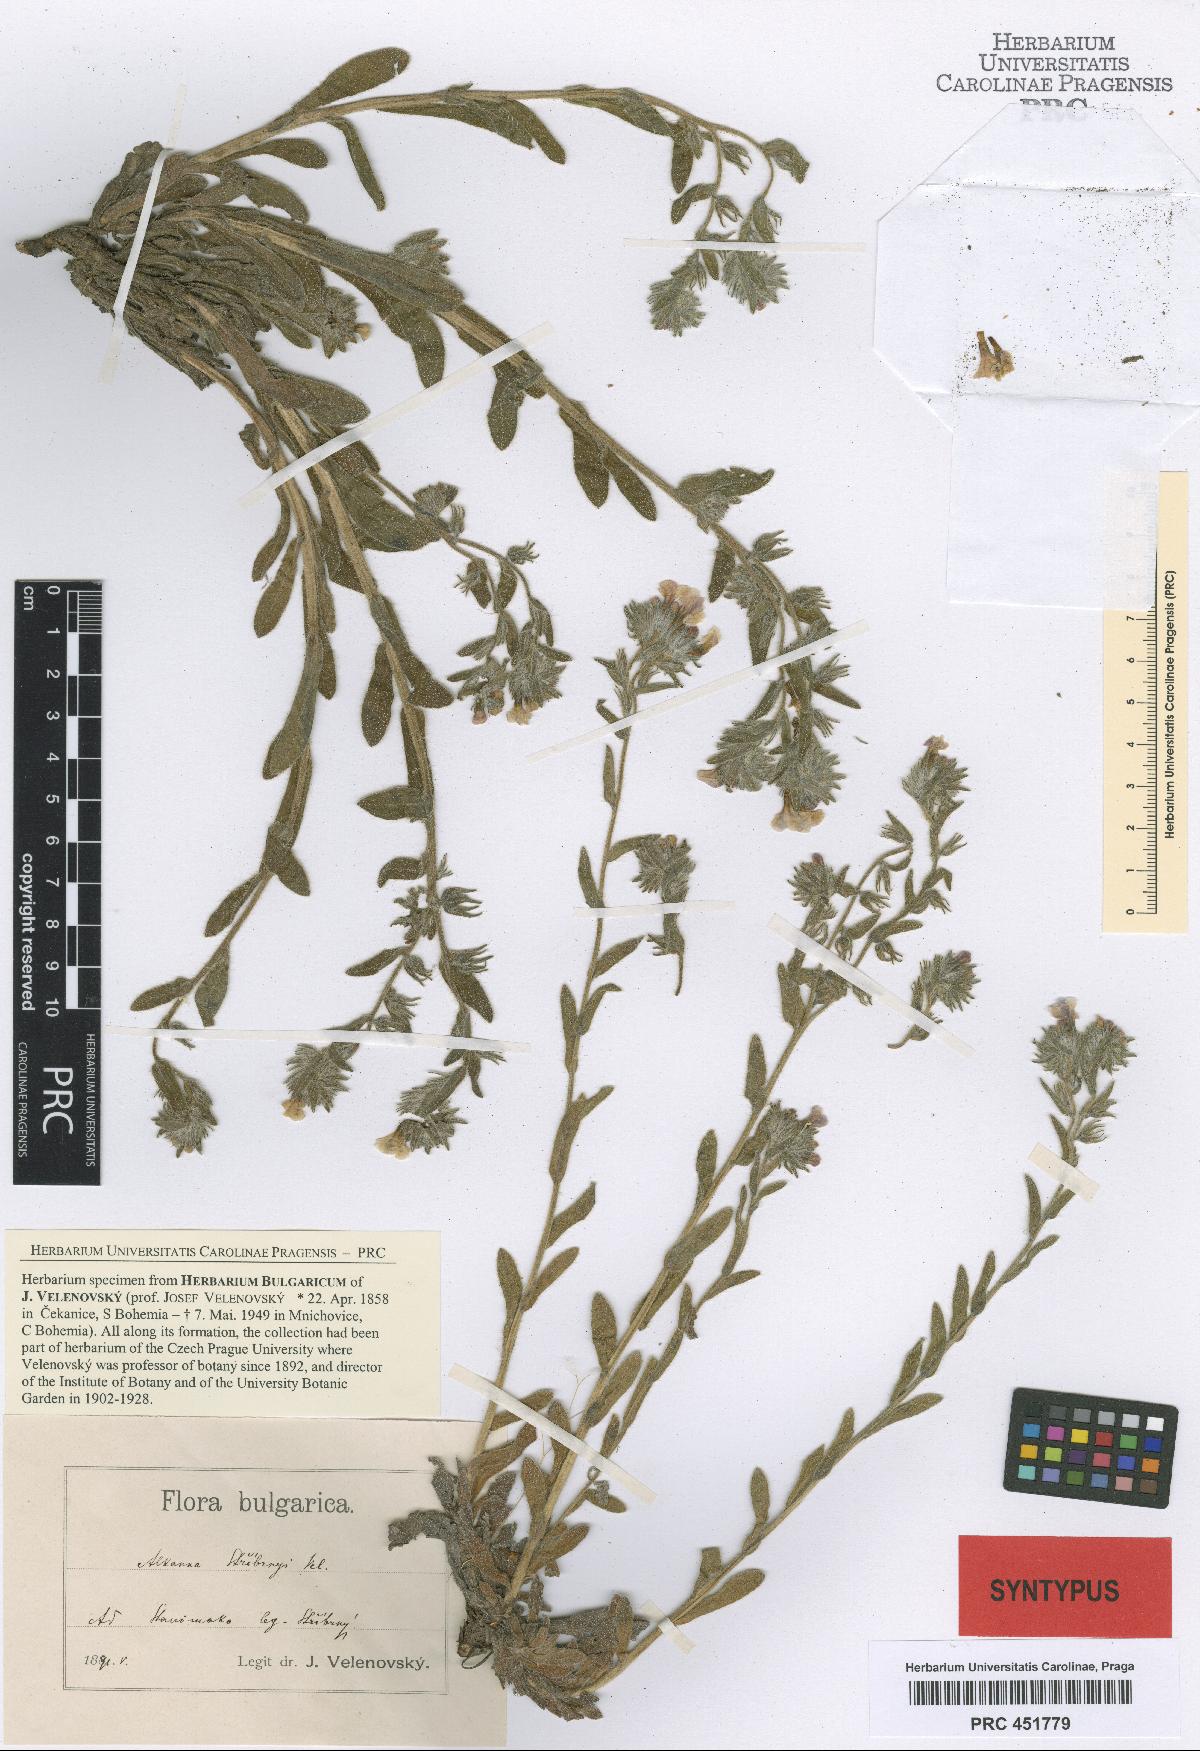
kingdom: Plantae
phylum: Tracheophyta
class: Magnoliopsida
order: Boraginales
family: Boraginaceae
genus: Alkanna
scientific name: Alkanna stribrnyi
